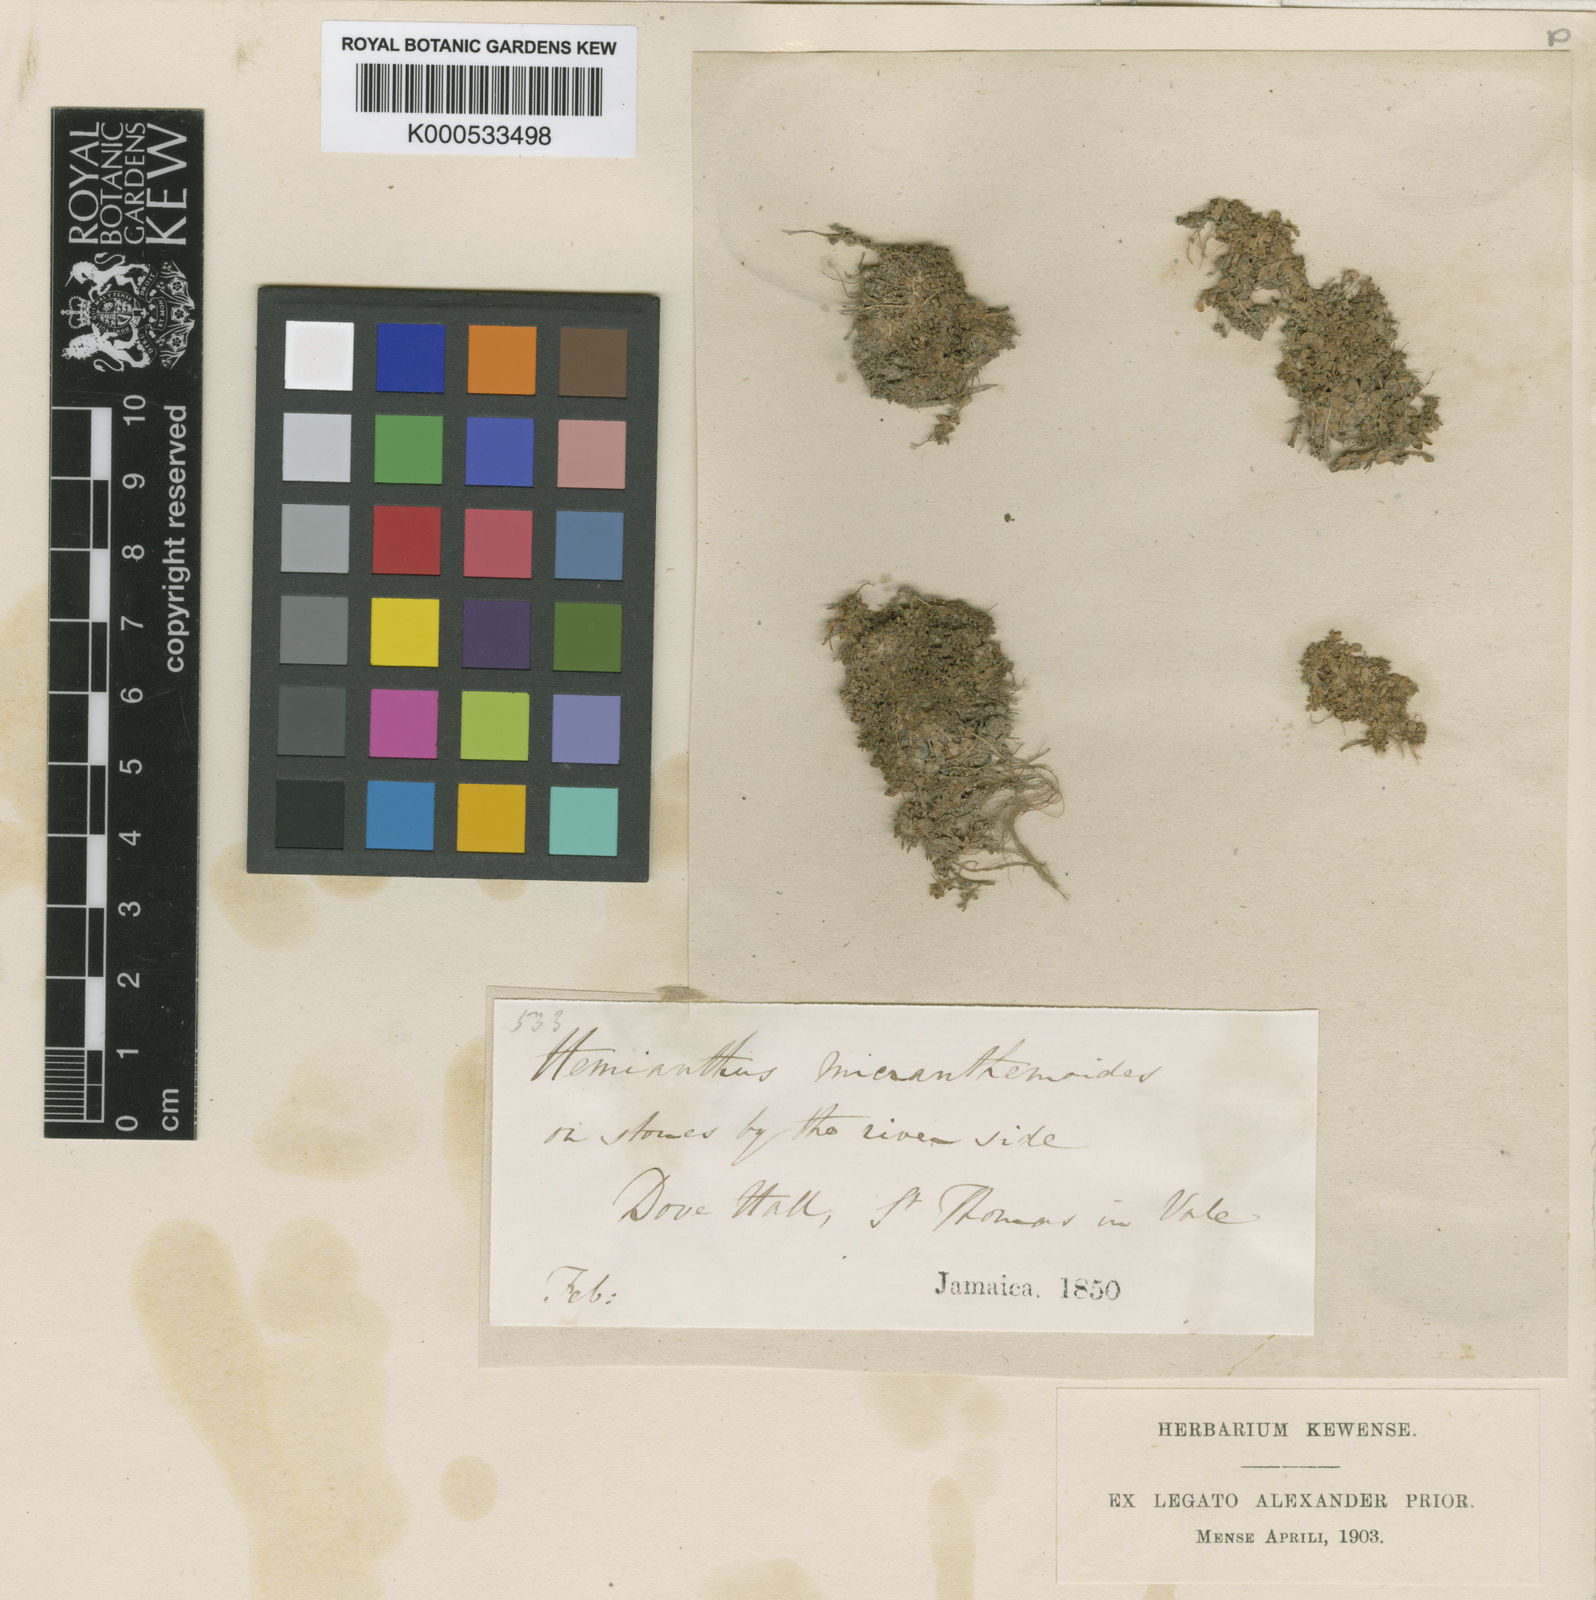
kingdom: Plantae
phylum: Tracheophyta
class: Magnoliopsida
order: Lamiales
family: Linderniaceae
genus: Micranthemum
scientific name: Micranthemum micranthemoides
